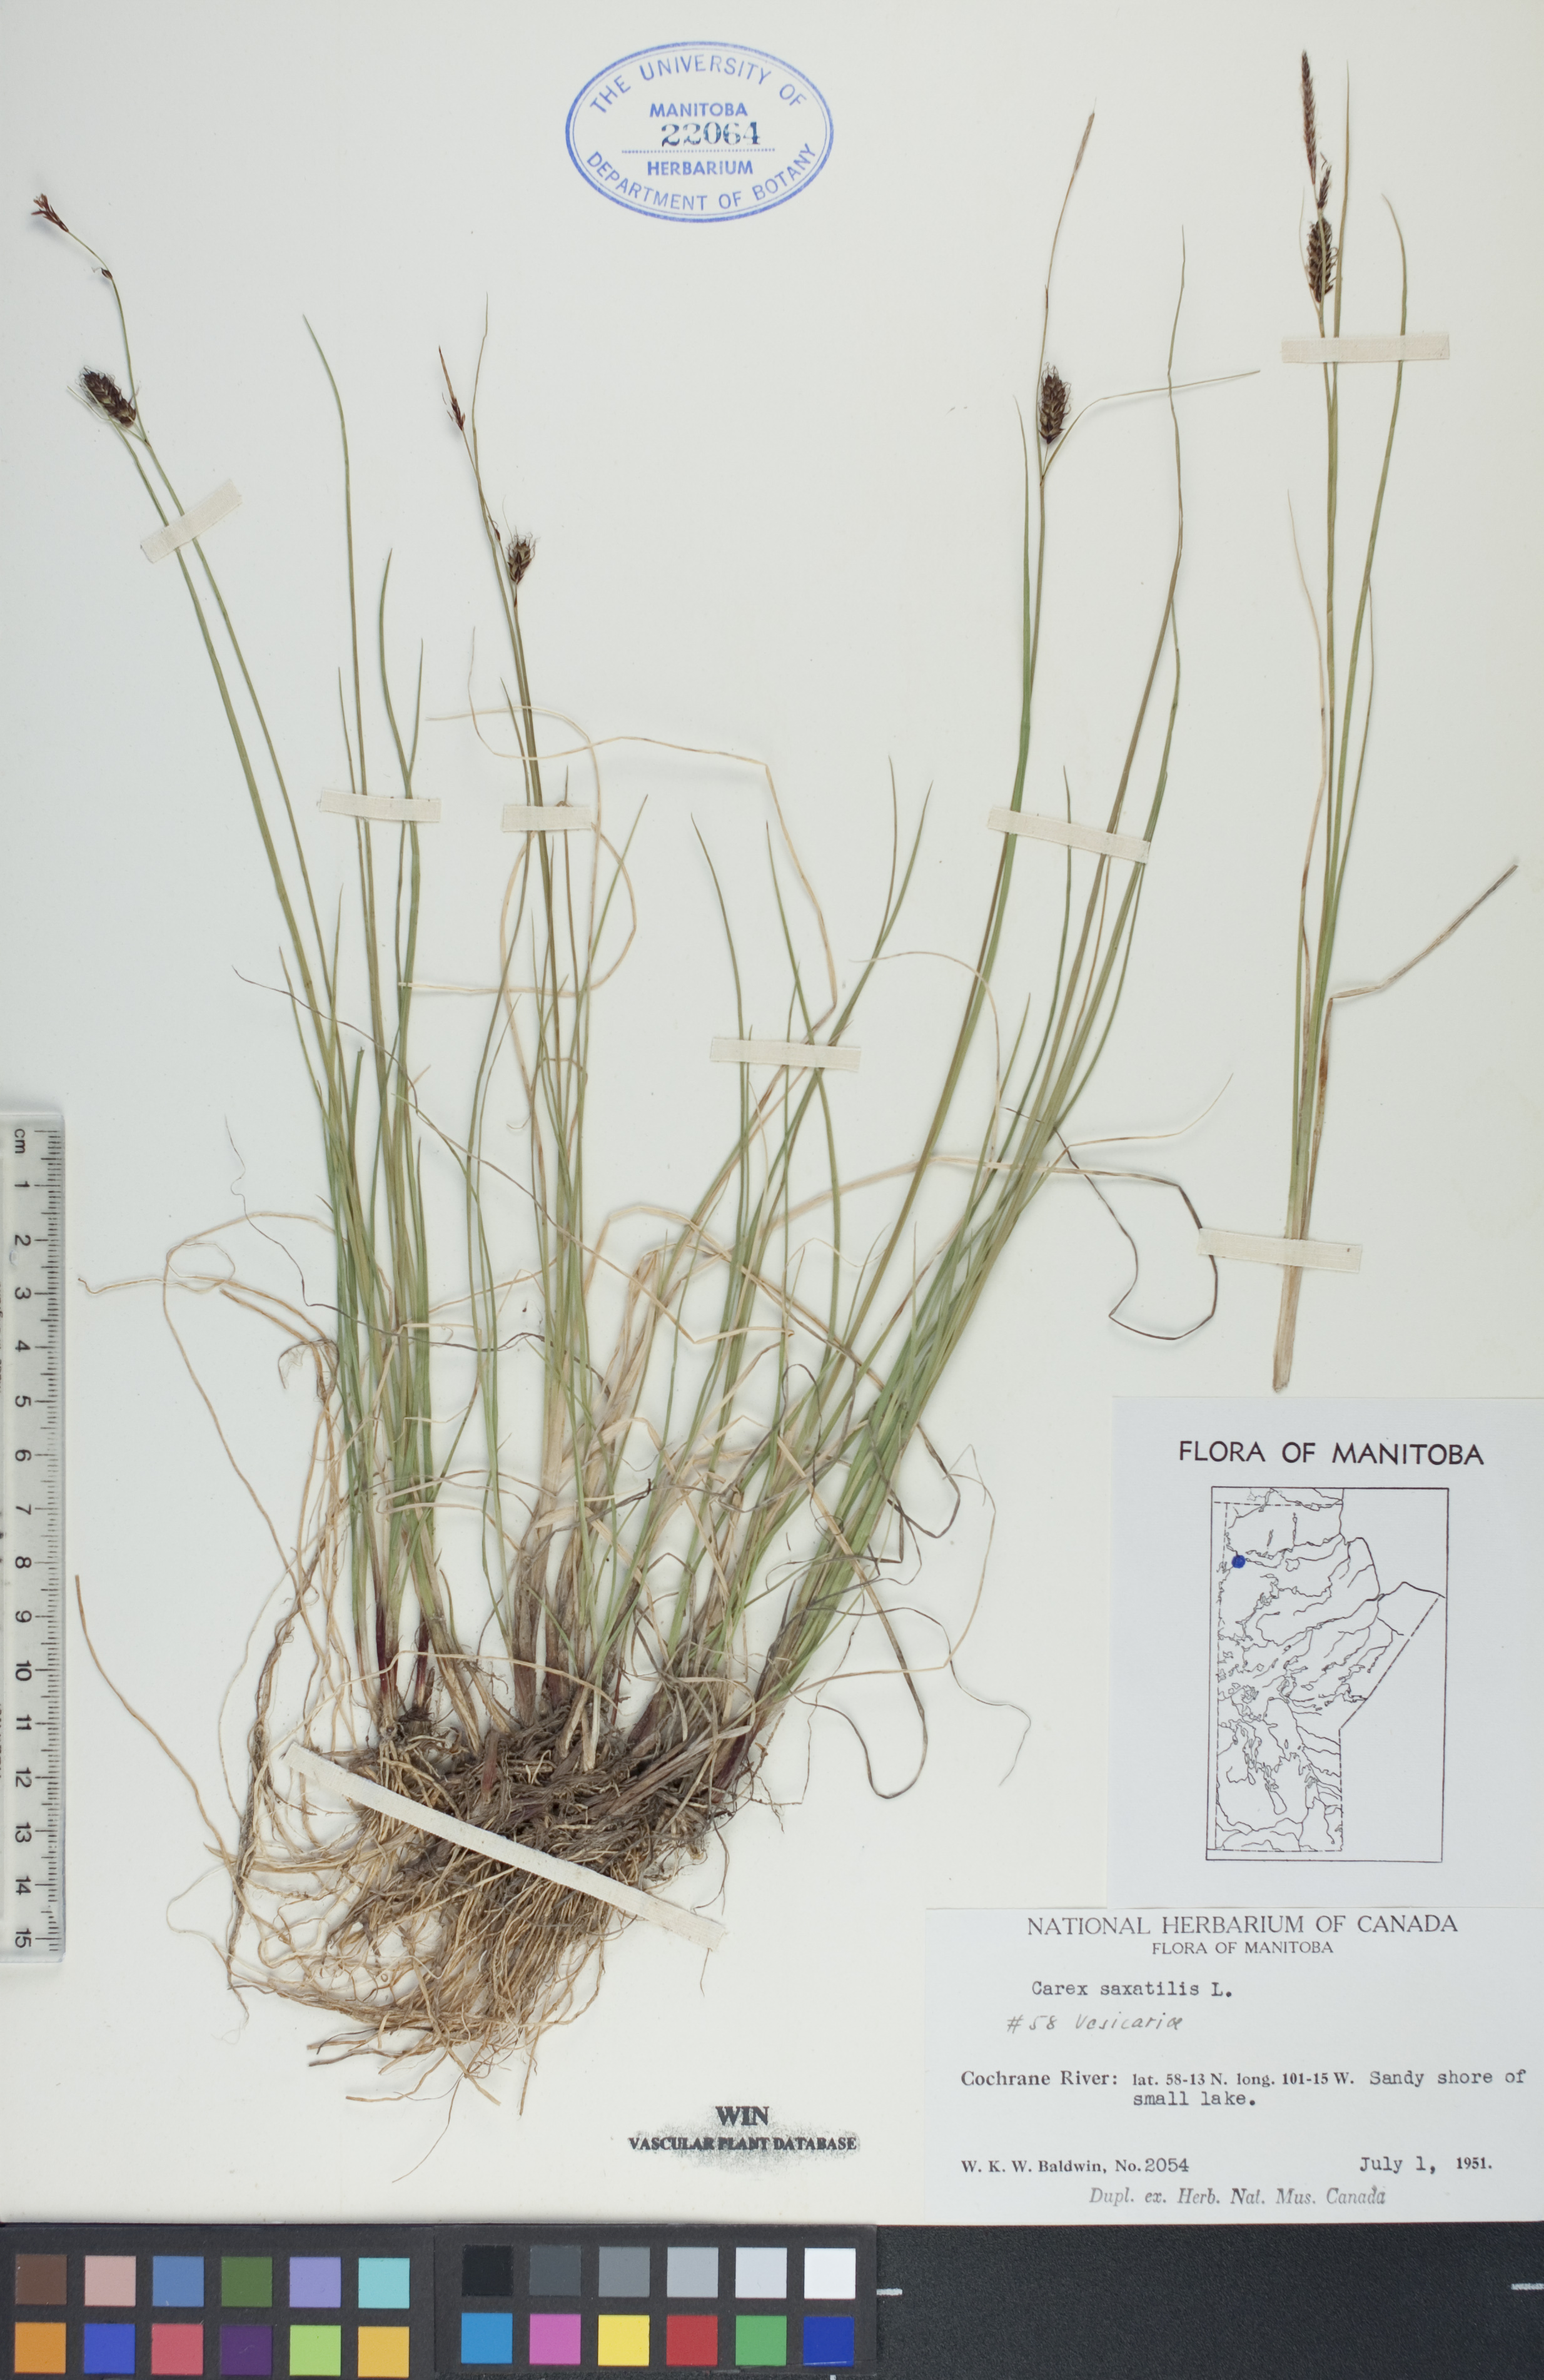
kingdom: Plantae
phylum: Tracheophyta
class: Liliopsida
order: Poales
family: Cyperaceae
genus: Carex
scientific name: Carex saxatilis
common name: Russet sedge
